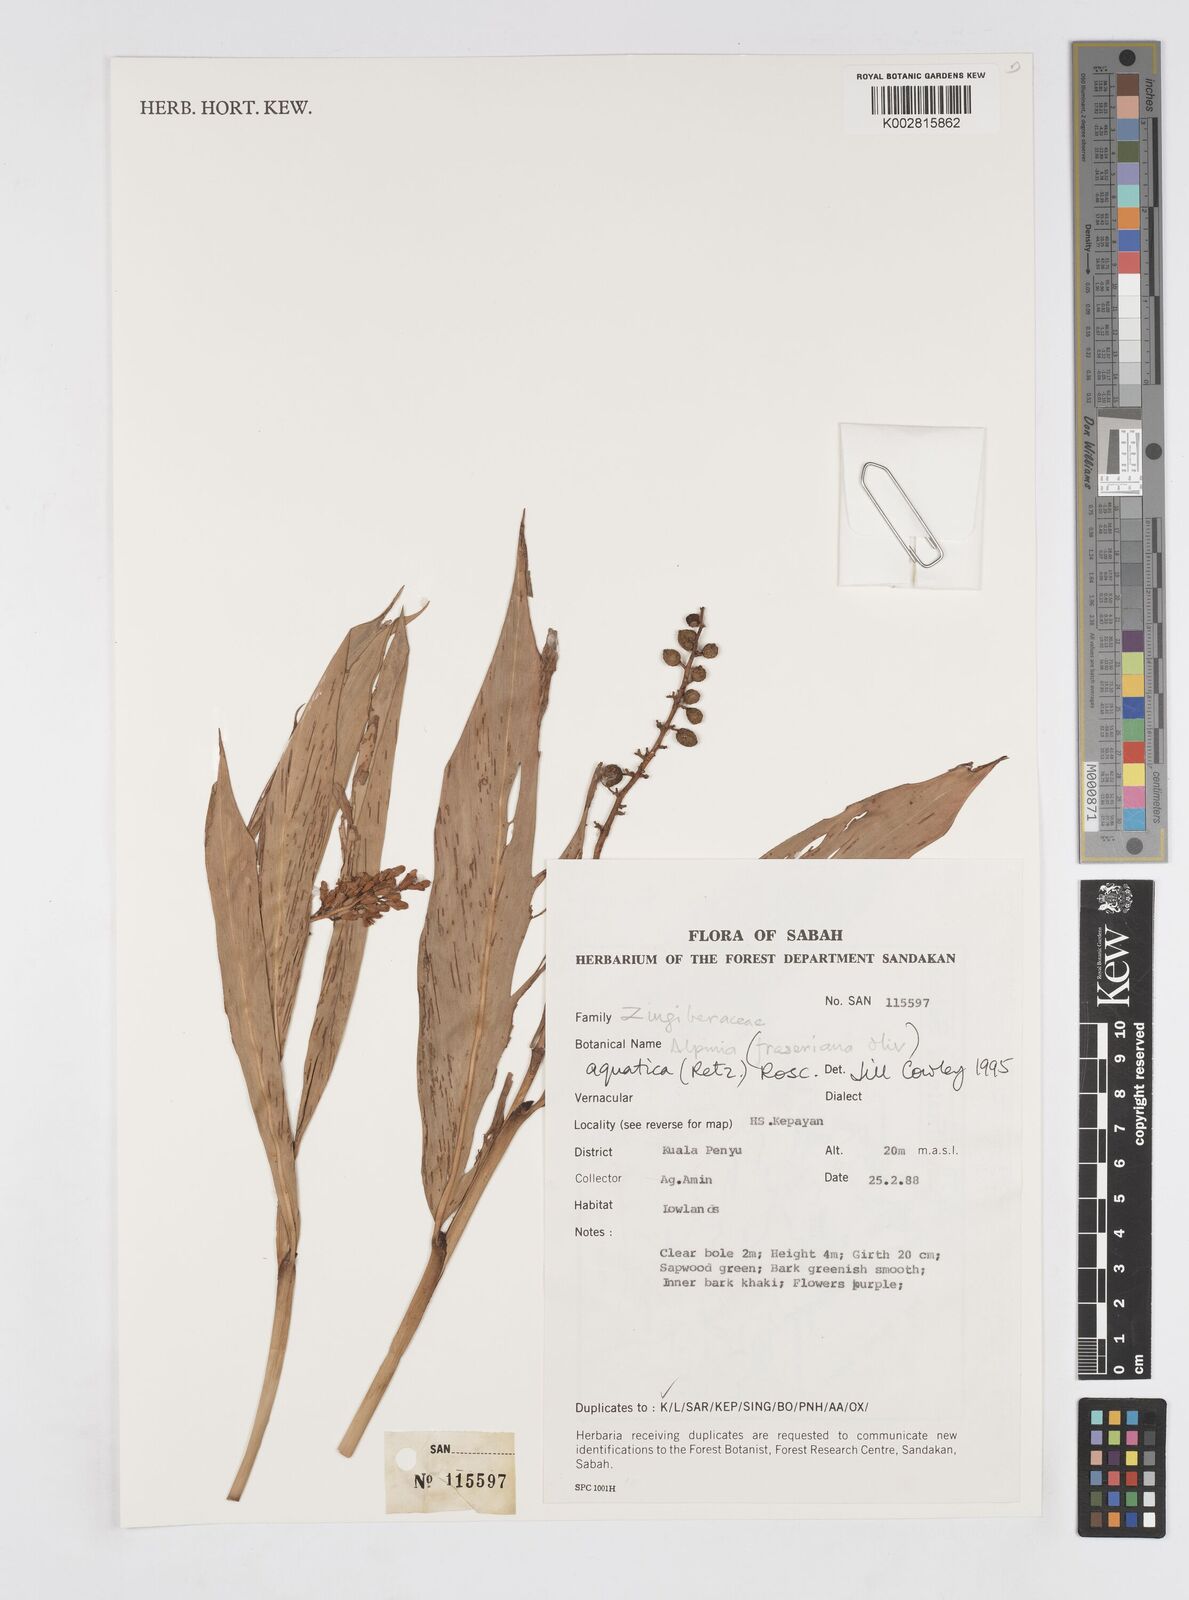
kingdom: Plantae
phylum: Tracheophyta
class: Liliopsida
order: Zingiberales
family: Zingiberaceae
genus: Alpinia
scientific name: Alpinia aquatica
